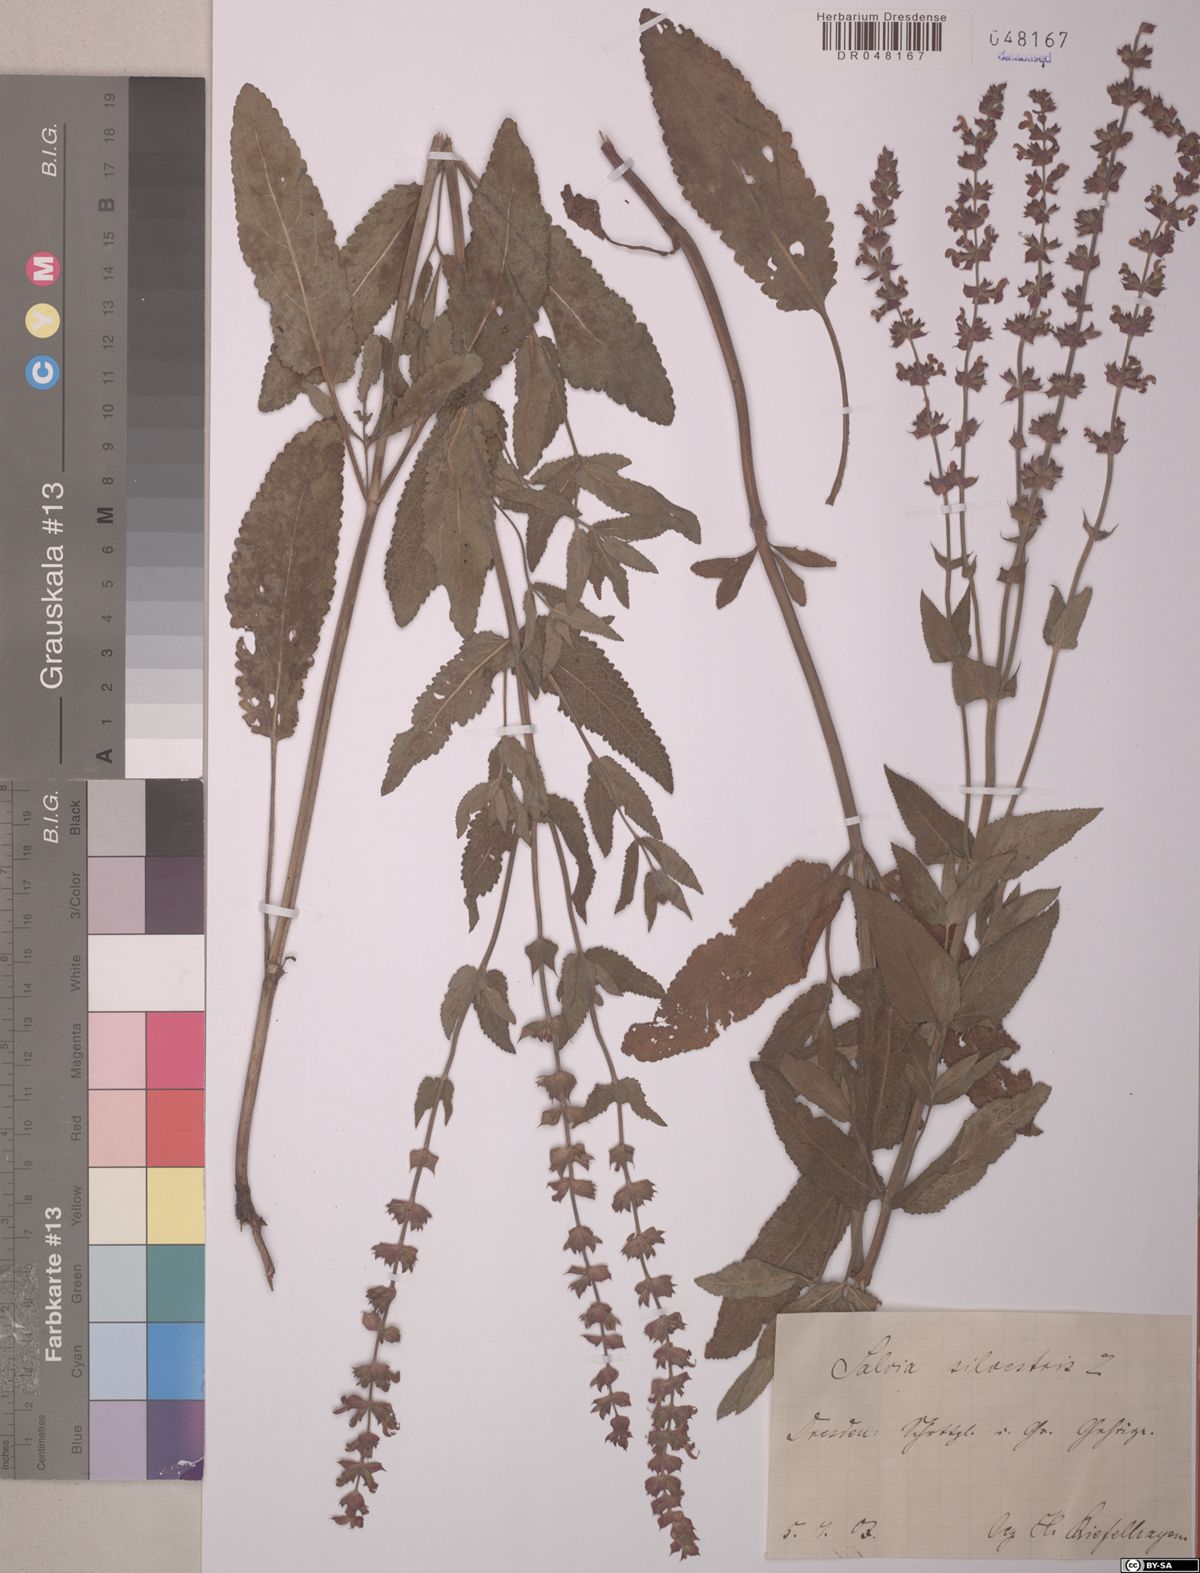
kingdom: Plantae
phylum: Tracheophyta
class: Magnoliopsida
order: Lamiales
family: Lamiaceae
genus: Salvia
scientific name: Salvia sylvestris
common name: Woodland sage
